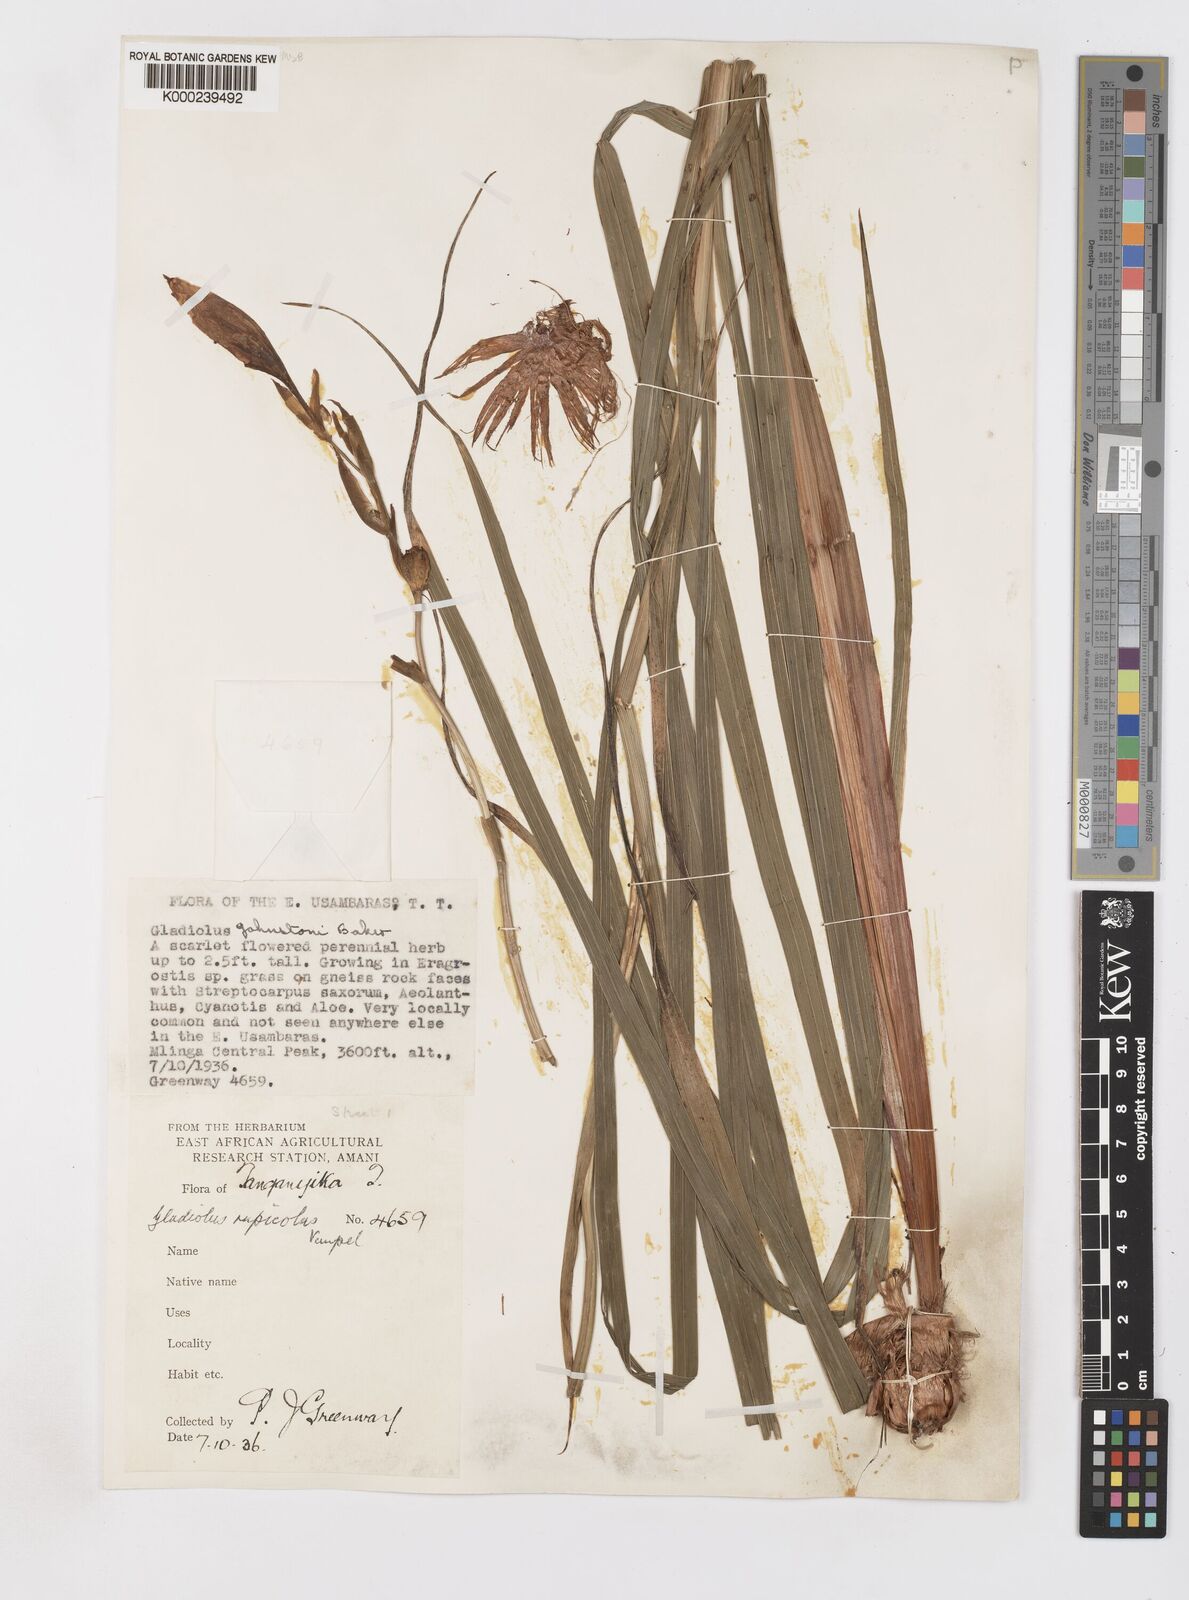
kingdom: Plantae
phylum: Tracheophyta
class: Liliopsida
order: Asparagales
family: Iridaceae
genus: Gladiolus
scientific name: Gladiolus rupicola
